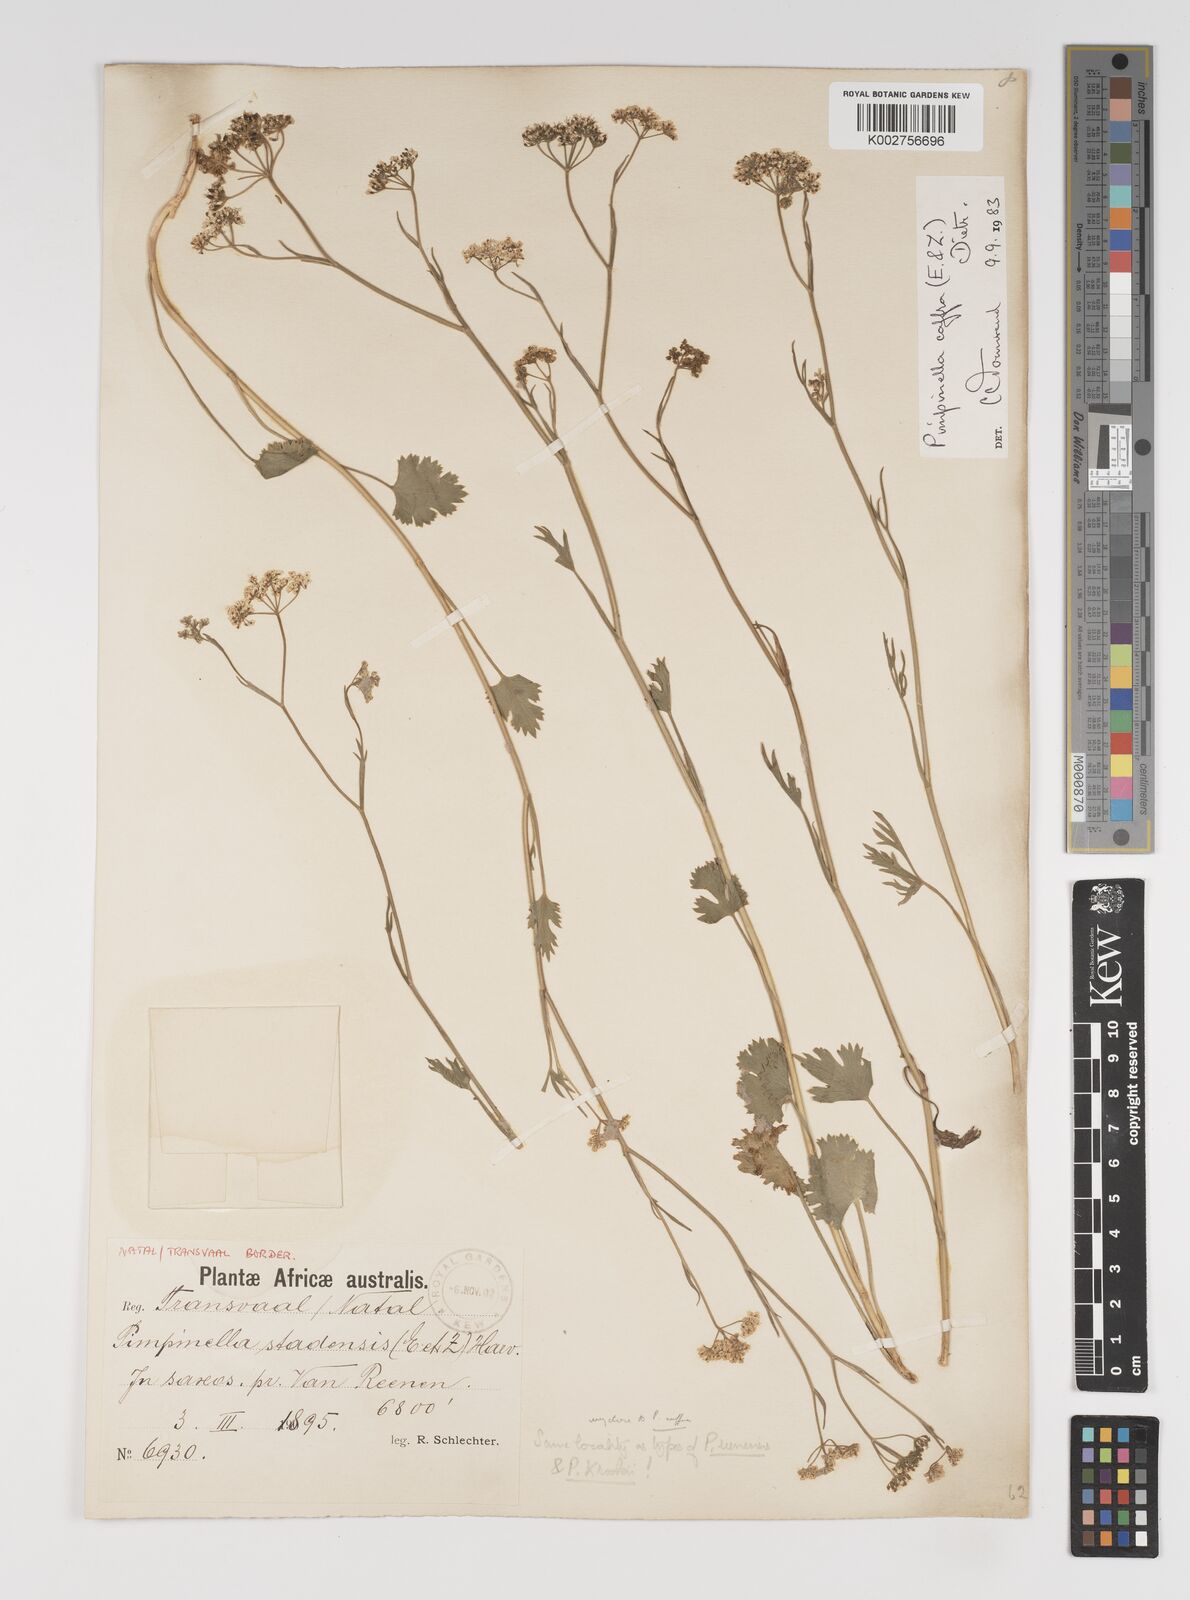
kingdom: Plantae
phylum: Tracheophyta
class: Magnoliopsida
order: Apiales
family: Apiaceae
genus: Pimpinella
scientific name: Pimpinella
